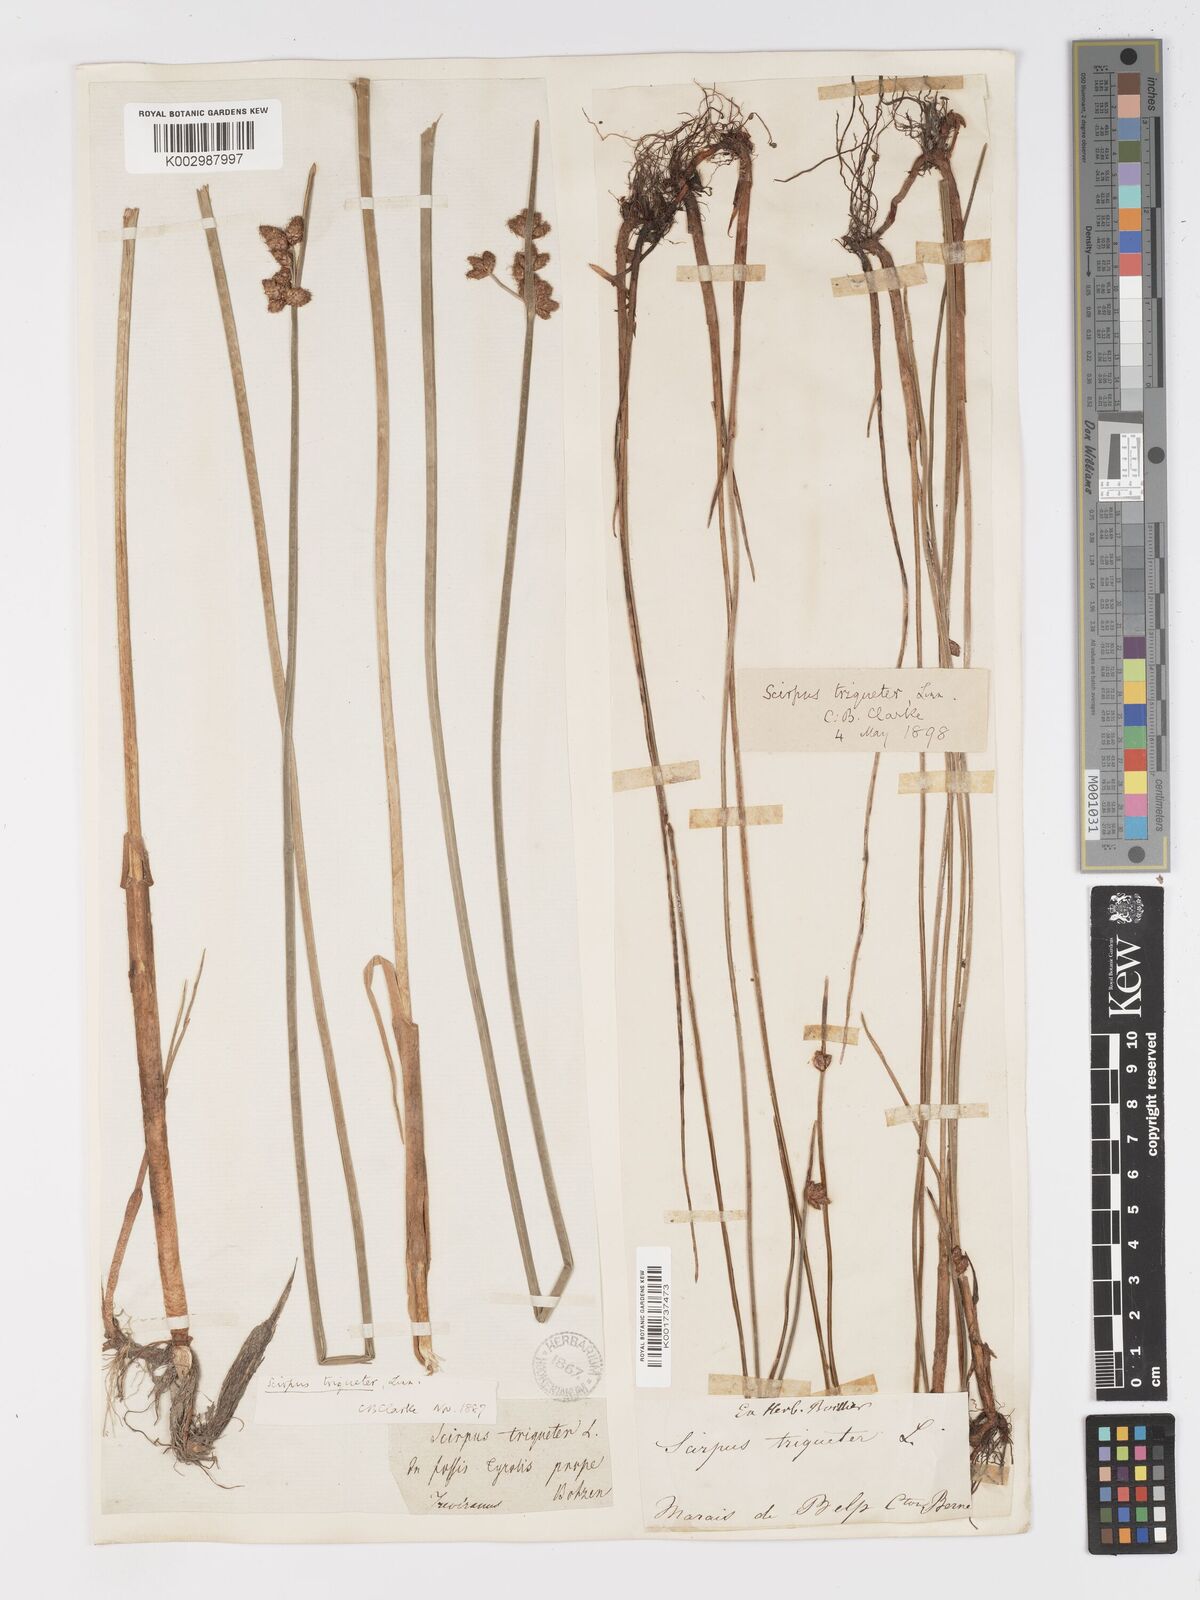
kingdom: Plantae
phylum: Tracheophyta
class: Liliopsida
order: Poales
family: Cyperaceae
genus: Schoenoplectus
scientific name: Schoenoplectus triqueter
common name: Triangular club-rush
